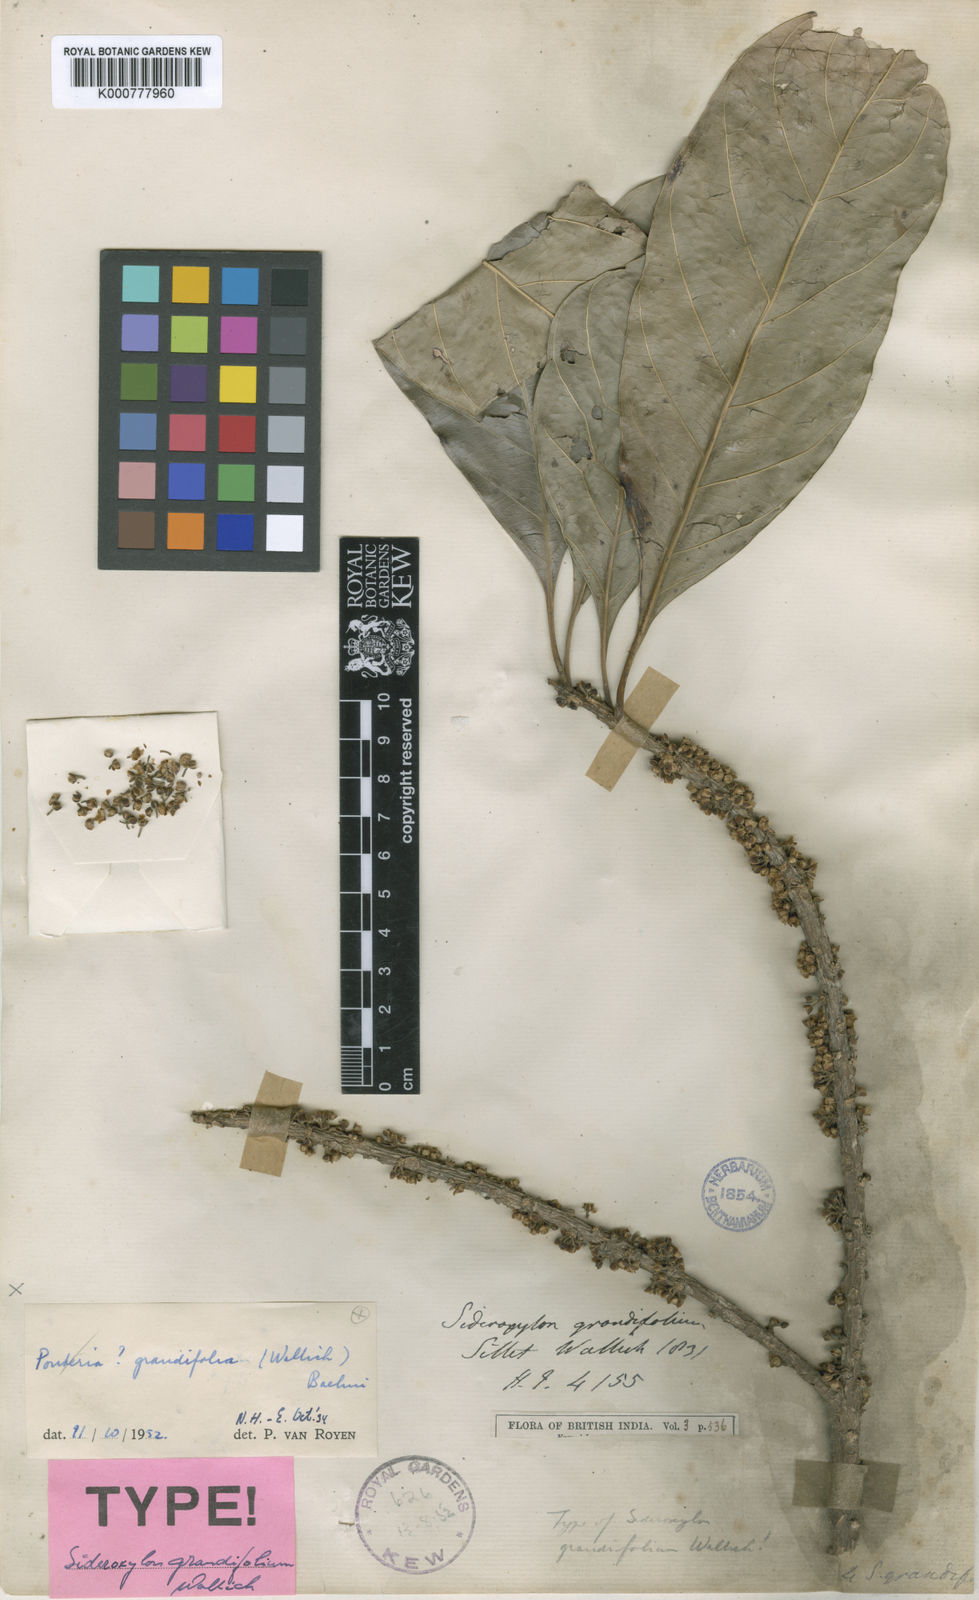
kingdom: Plantae
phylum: Tracheophyta
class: Magnoliopsida
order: Ericales
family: Sapotaceae
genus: Planchonella
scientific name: Planchonella grandifolia
